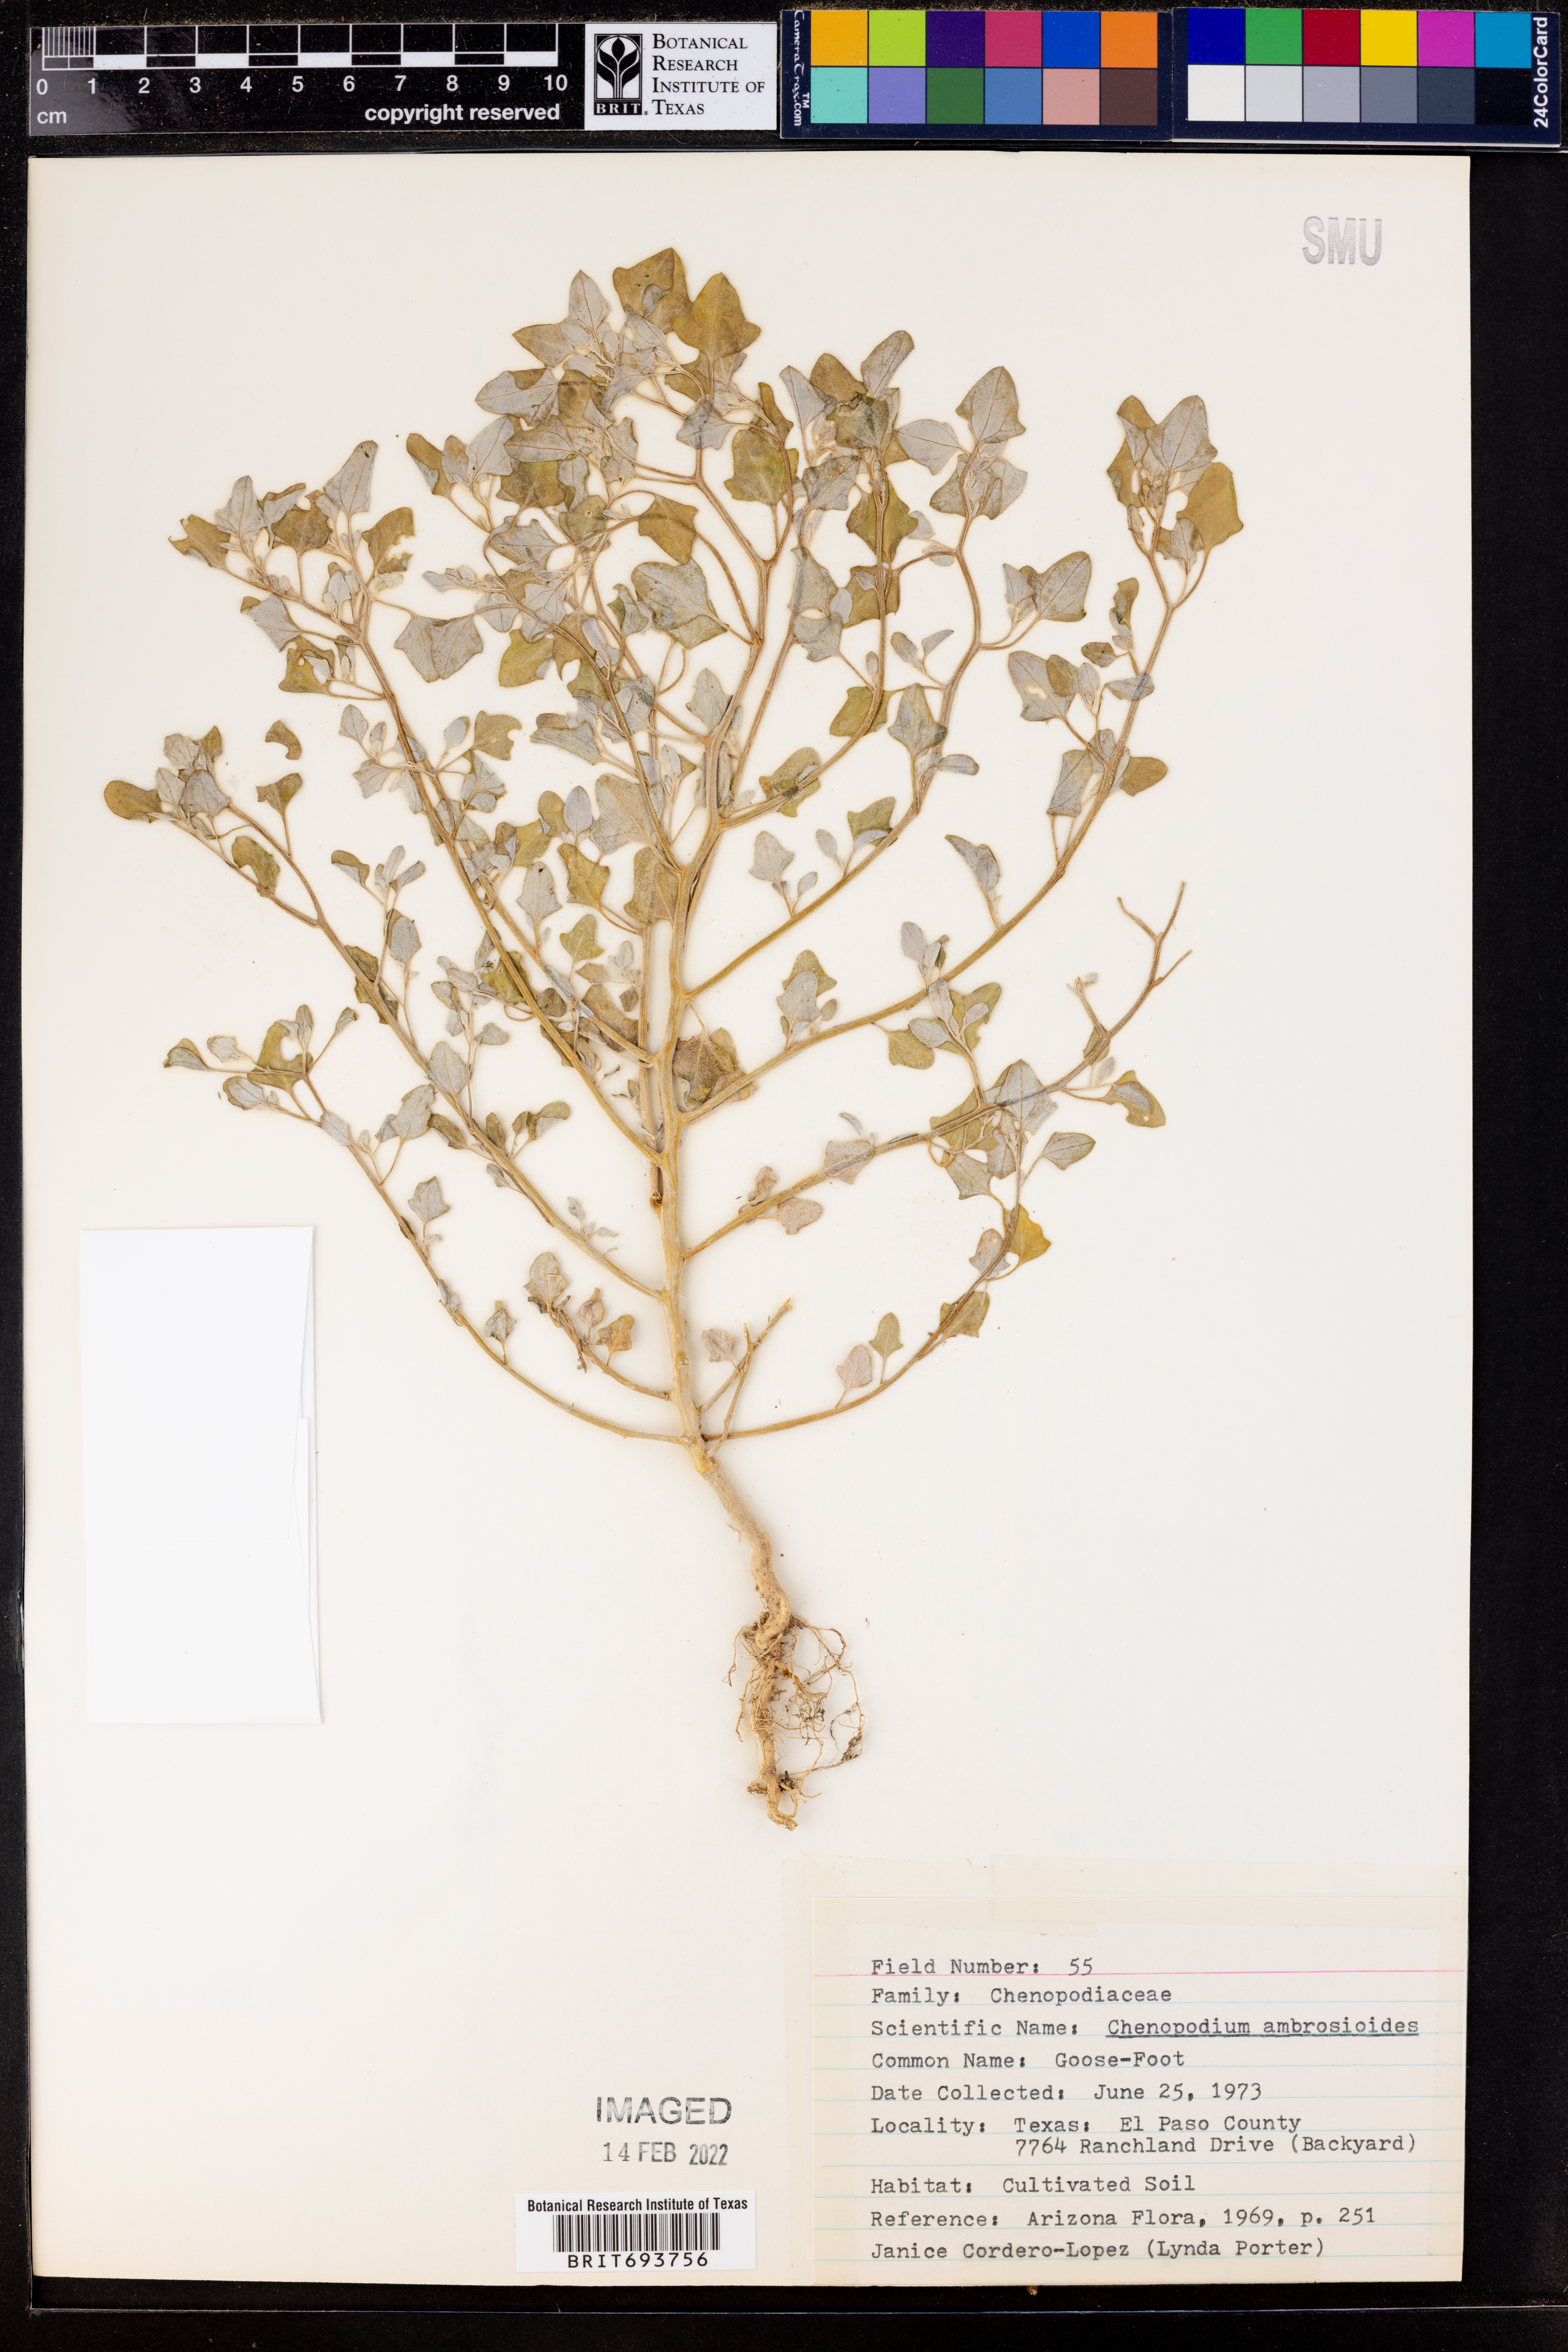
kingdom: Plantae
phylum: Tracheophyta
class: Magnoliopsida
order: Caryophyllales
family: Amaranthaceae
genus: Dysphania
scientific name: Dysphania ambrosioides
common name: Wormseed
